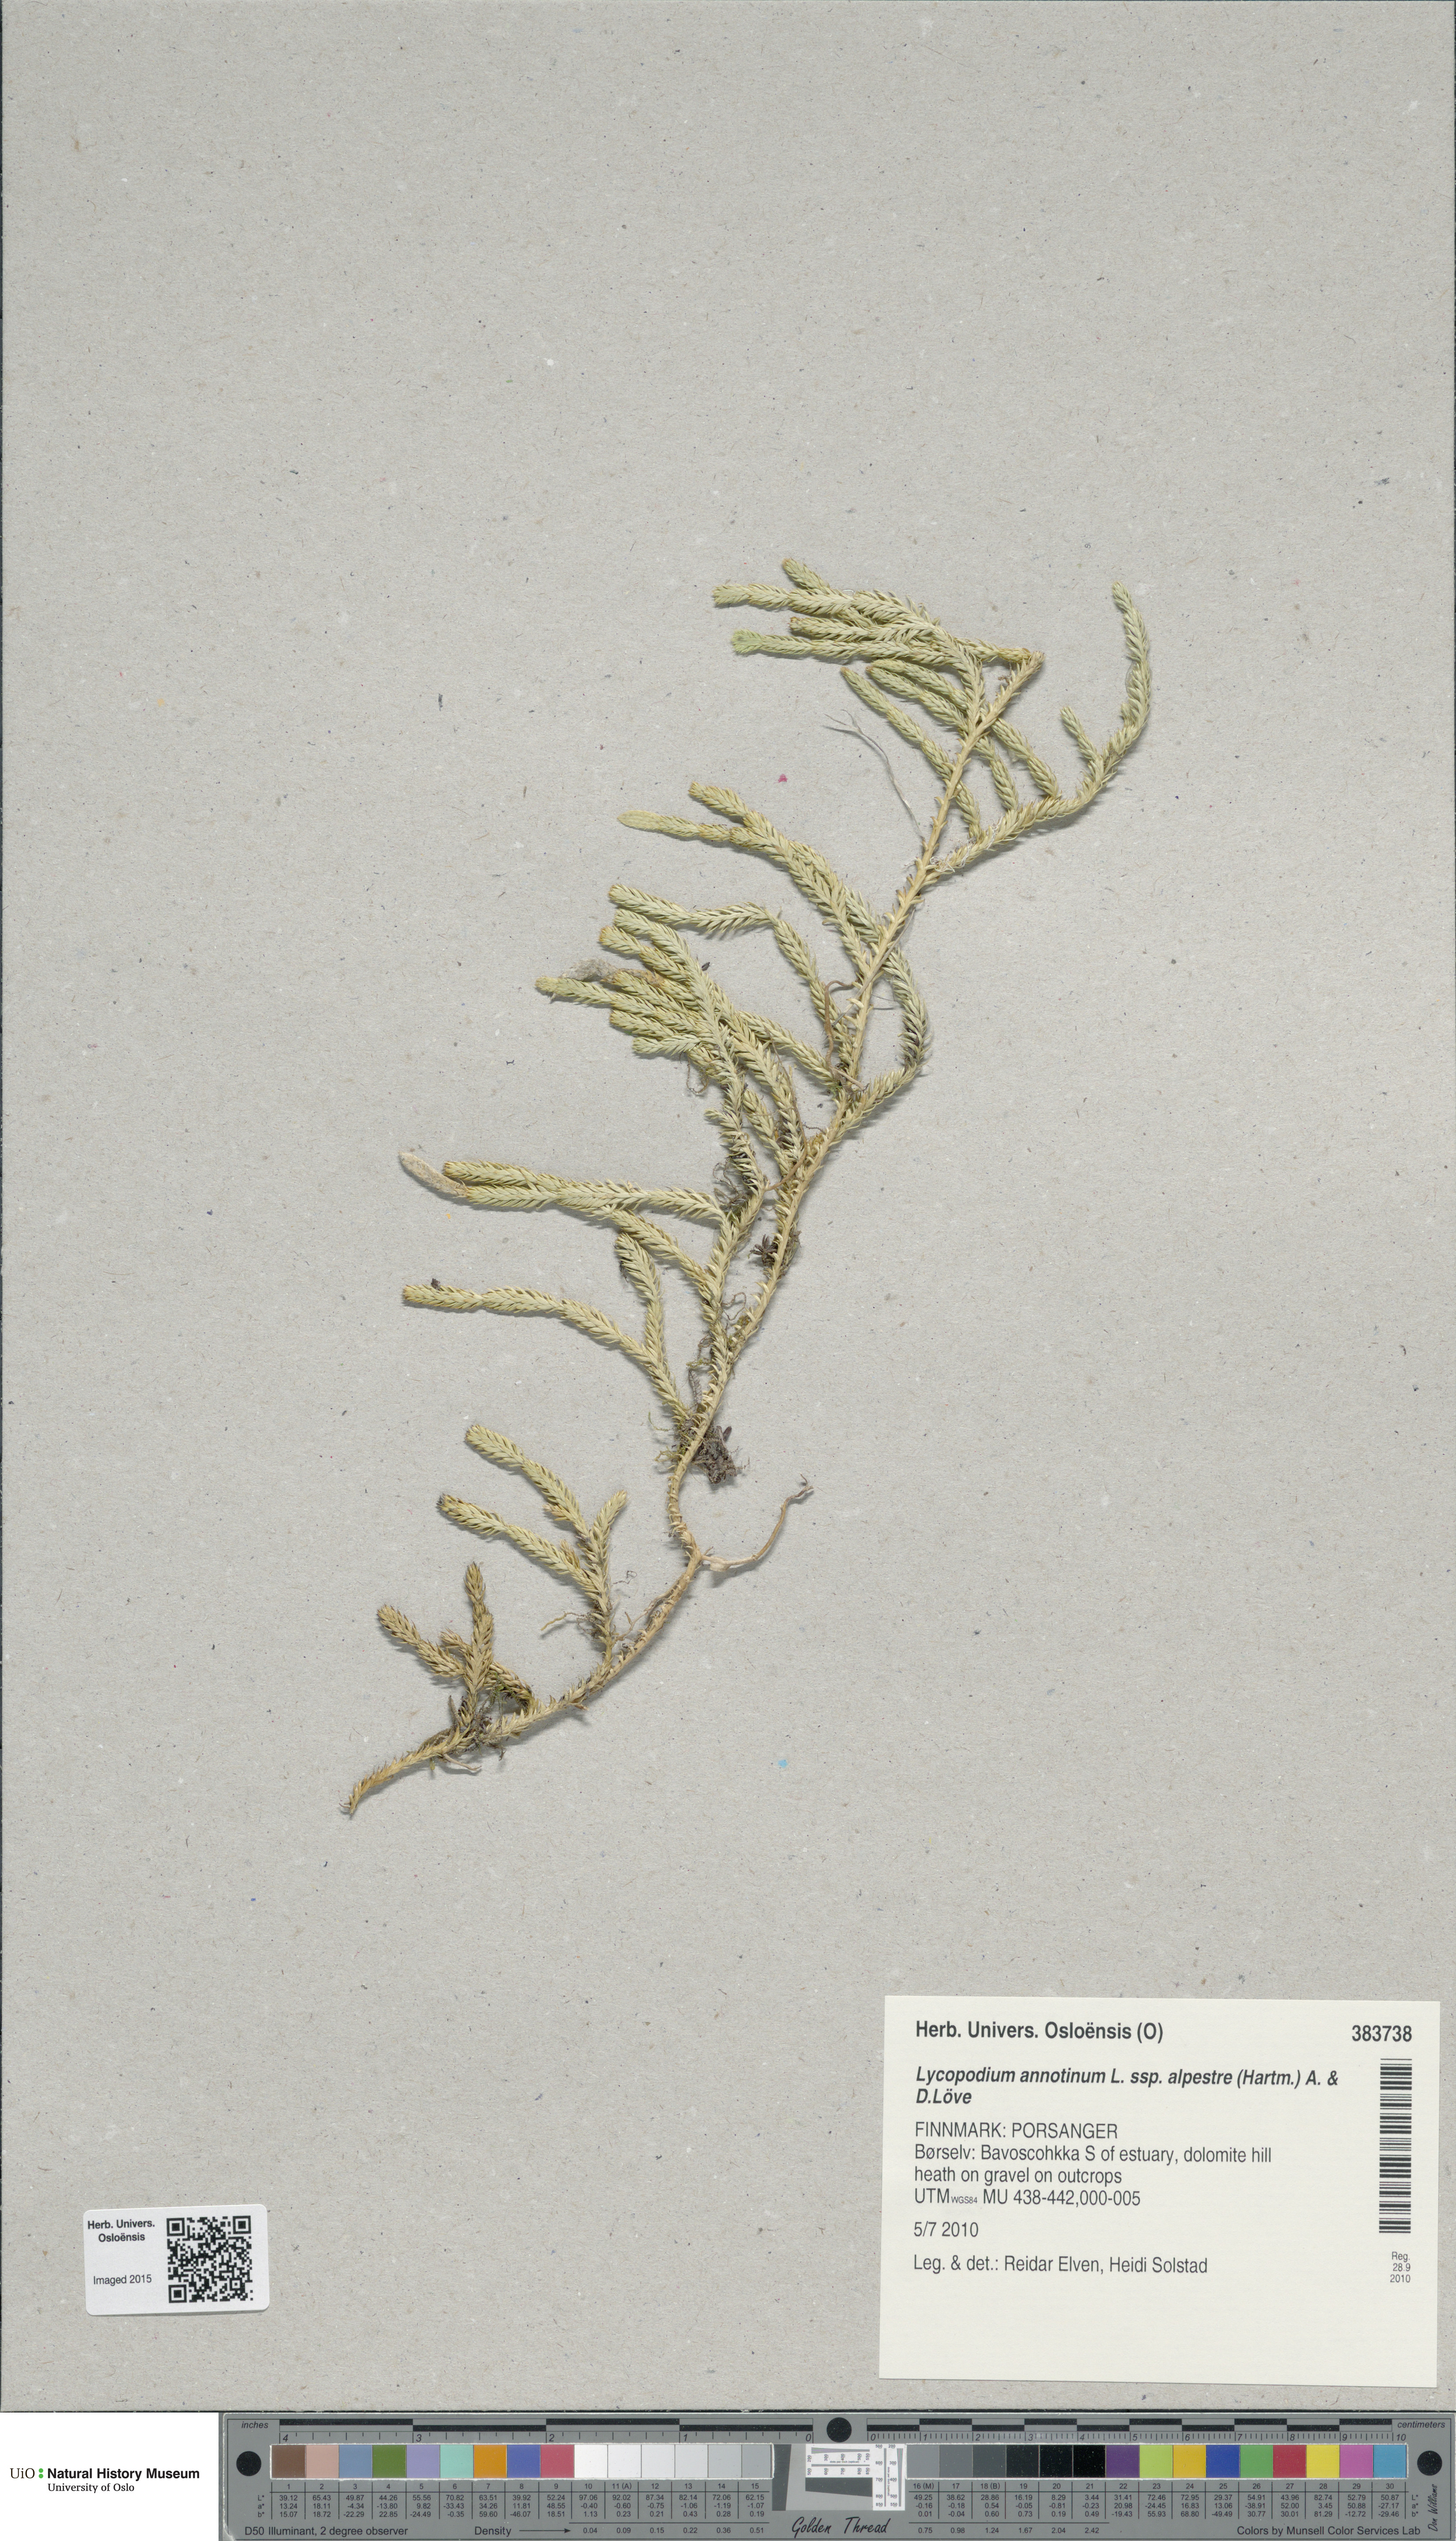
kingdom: Plantae
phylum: Tracheophyta
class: Lycopodiopsida
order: Lycopodiales
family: Lycopodiaceae
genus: Spinulum
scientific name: Spinulum annotinum
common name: Interrupted club-moss
